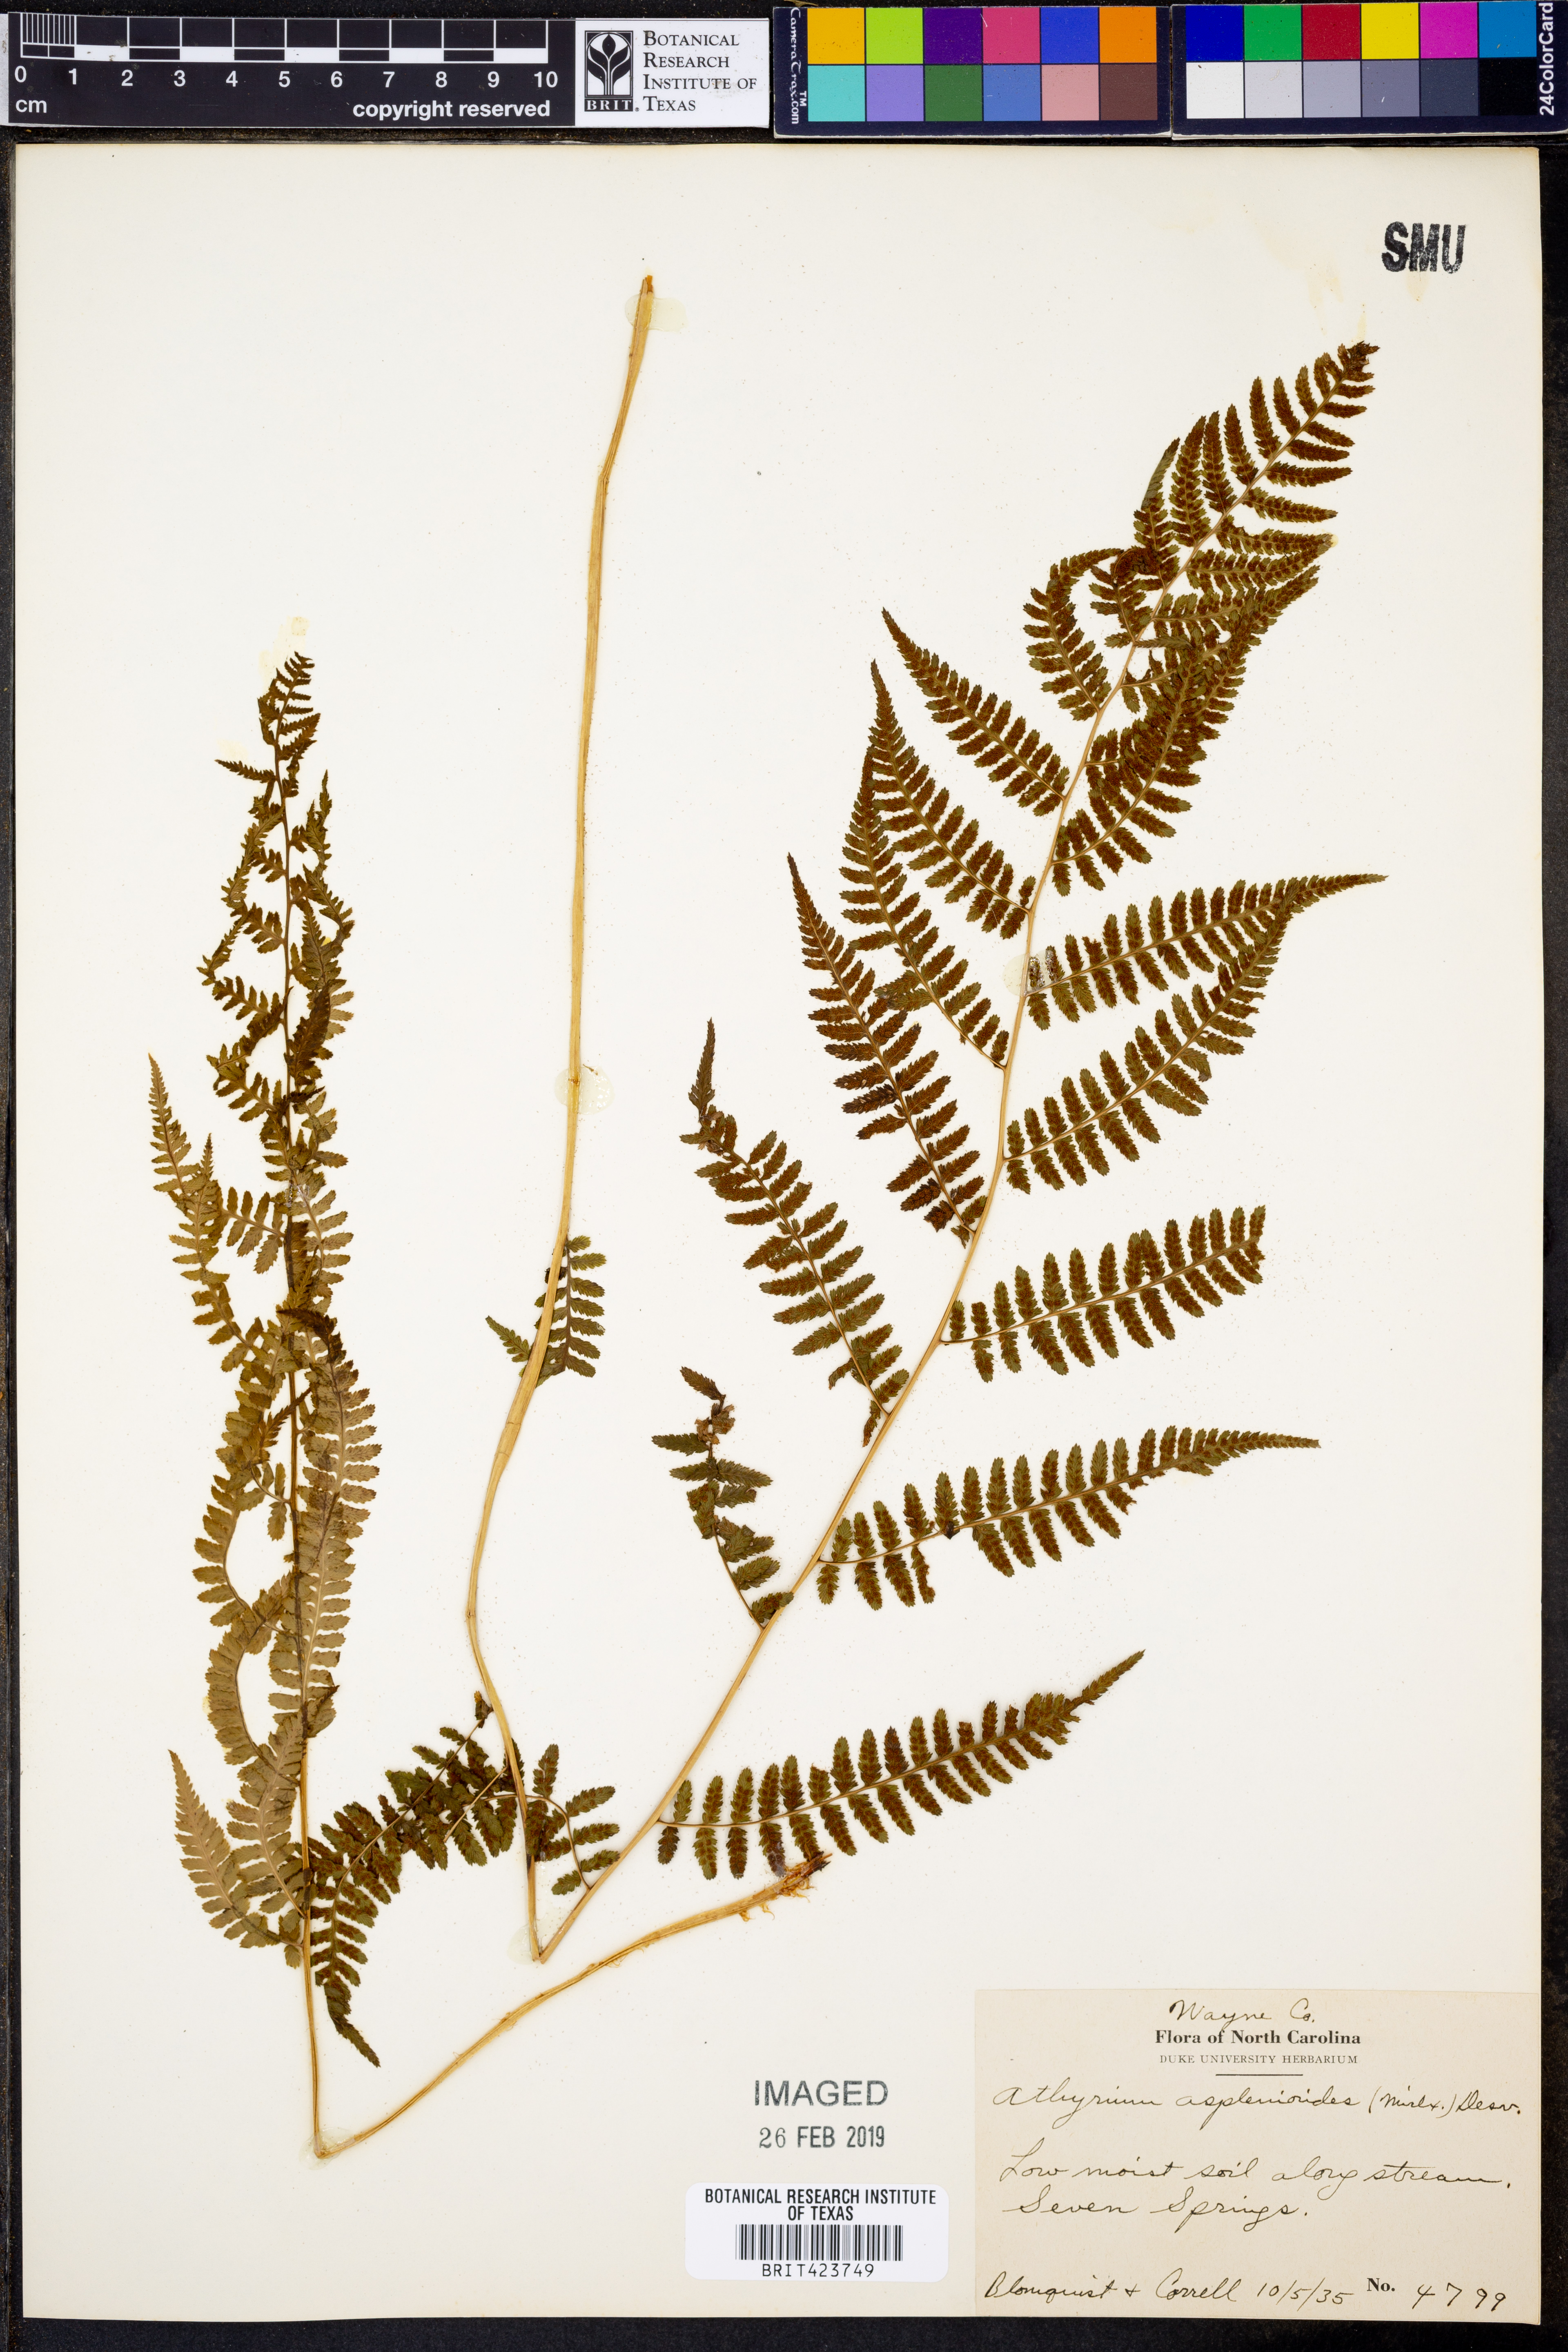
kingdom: Plantae
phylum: Tracheophyta
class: Polypodiopsida
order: Polypodiales
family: Athyriaceae
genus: Athyrium
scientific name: Athyrium asplenioides
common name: Southern lady fern
